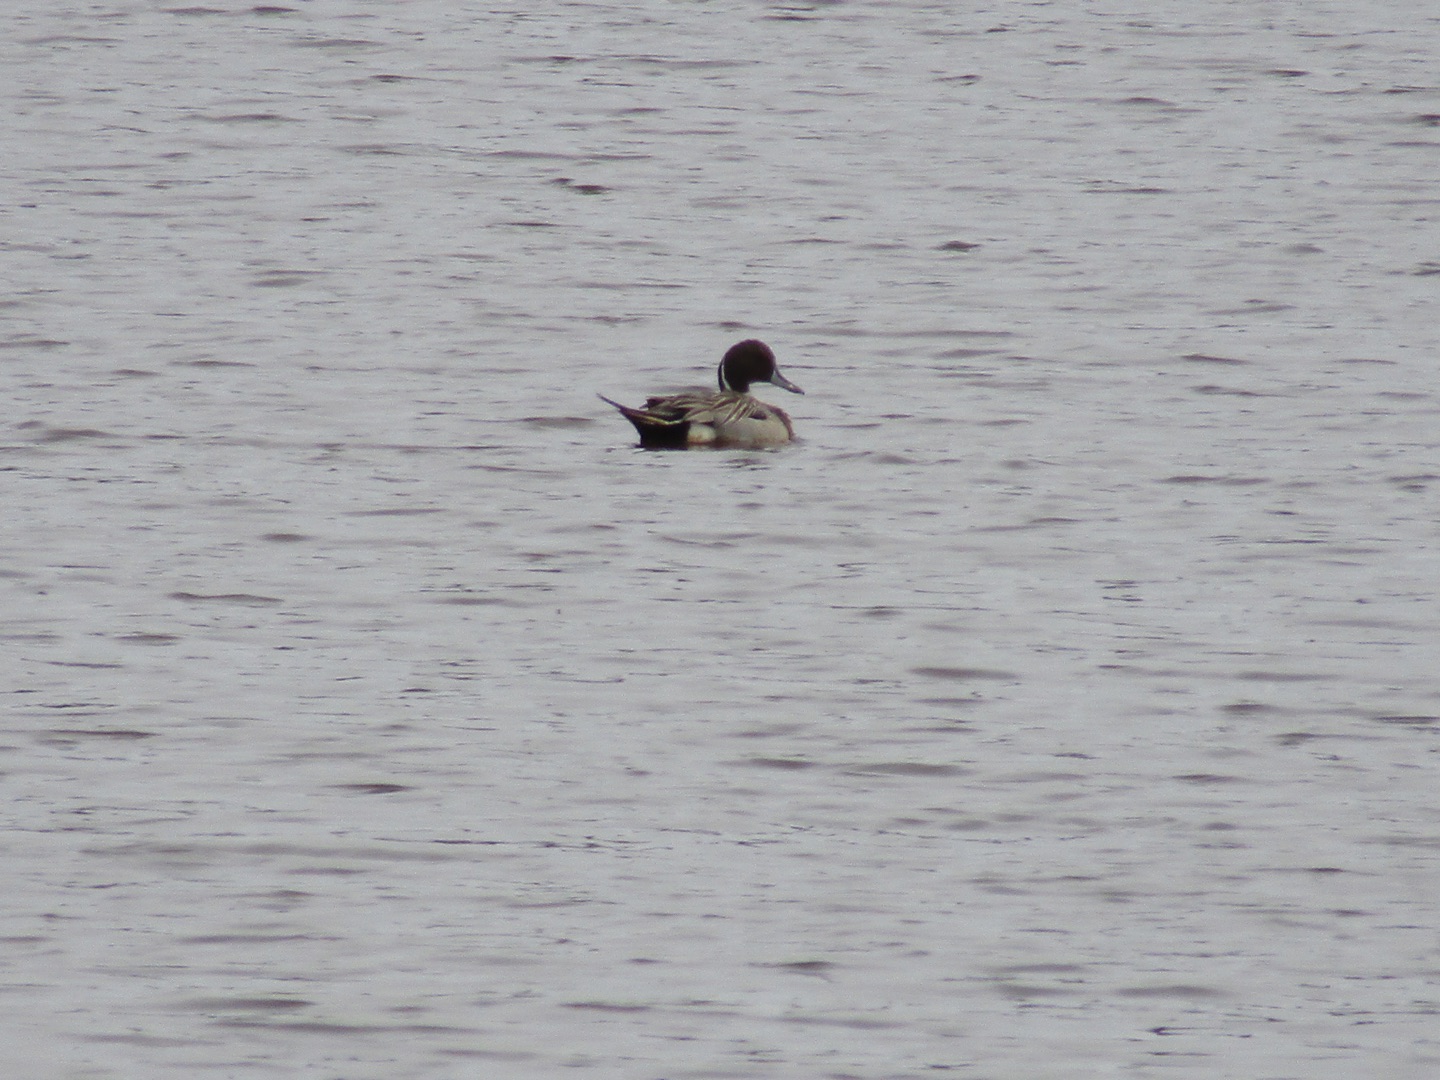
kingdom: Animalia
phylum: Chordata
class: Aves
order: Anseriformes
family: Anatidae
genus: Anas
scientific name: Anas acuta
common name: Spidsand
